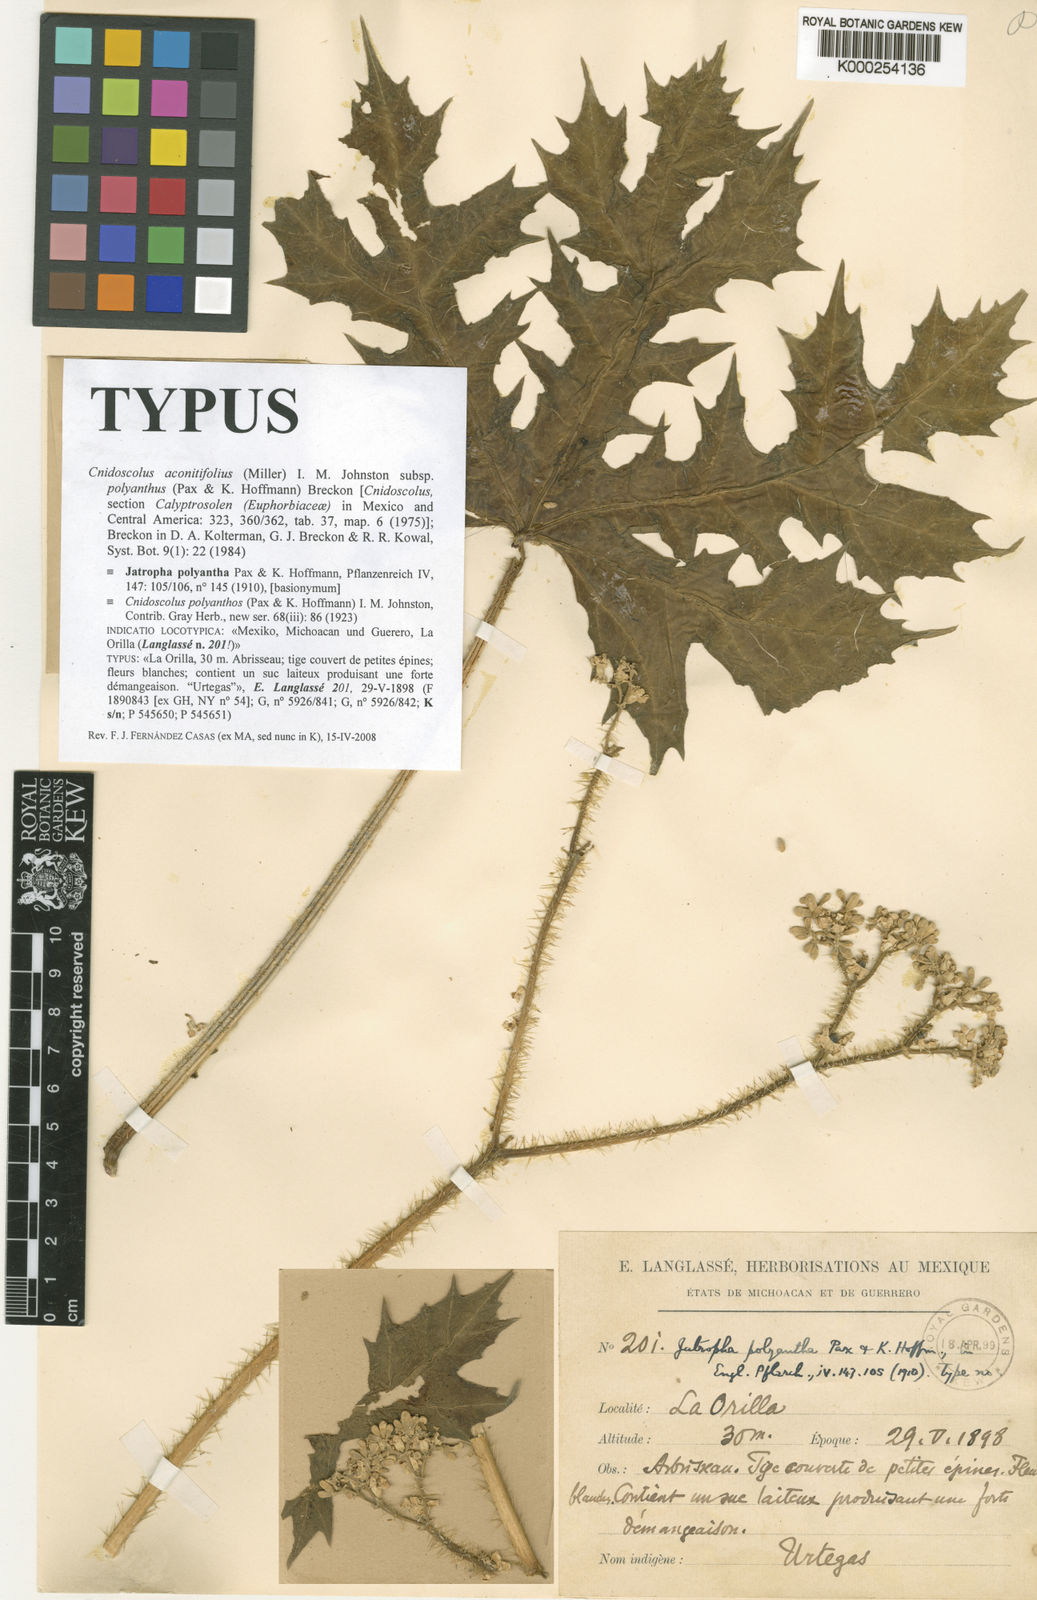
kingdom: Plantae
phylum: Tracheophyta
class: Magnoliopsida
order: Malpighiales
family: Euphorbiaceae
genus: Cnidoscolus
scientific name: Cnidoscolus aconitifolius
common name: Cabbage-star
